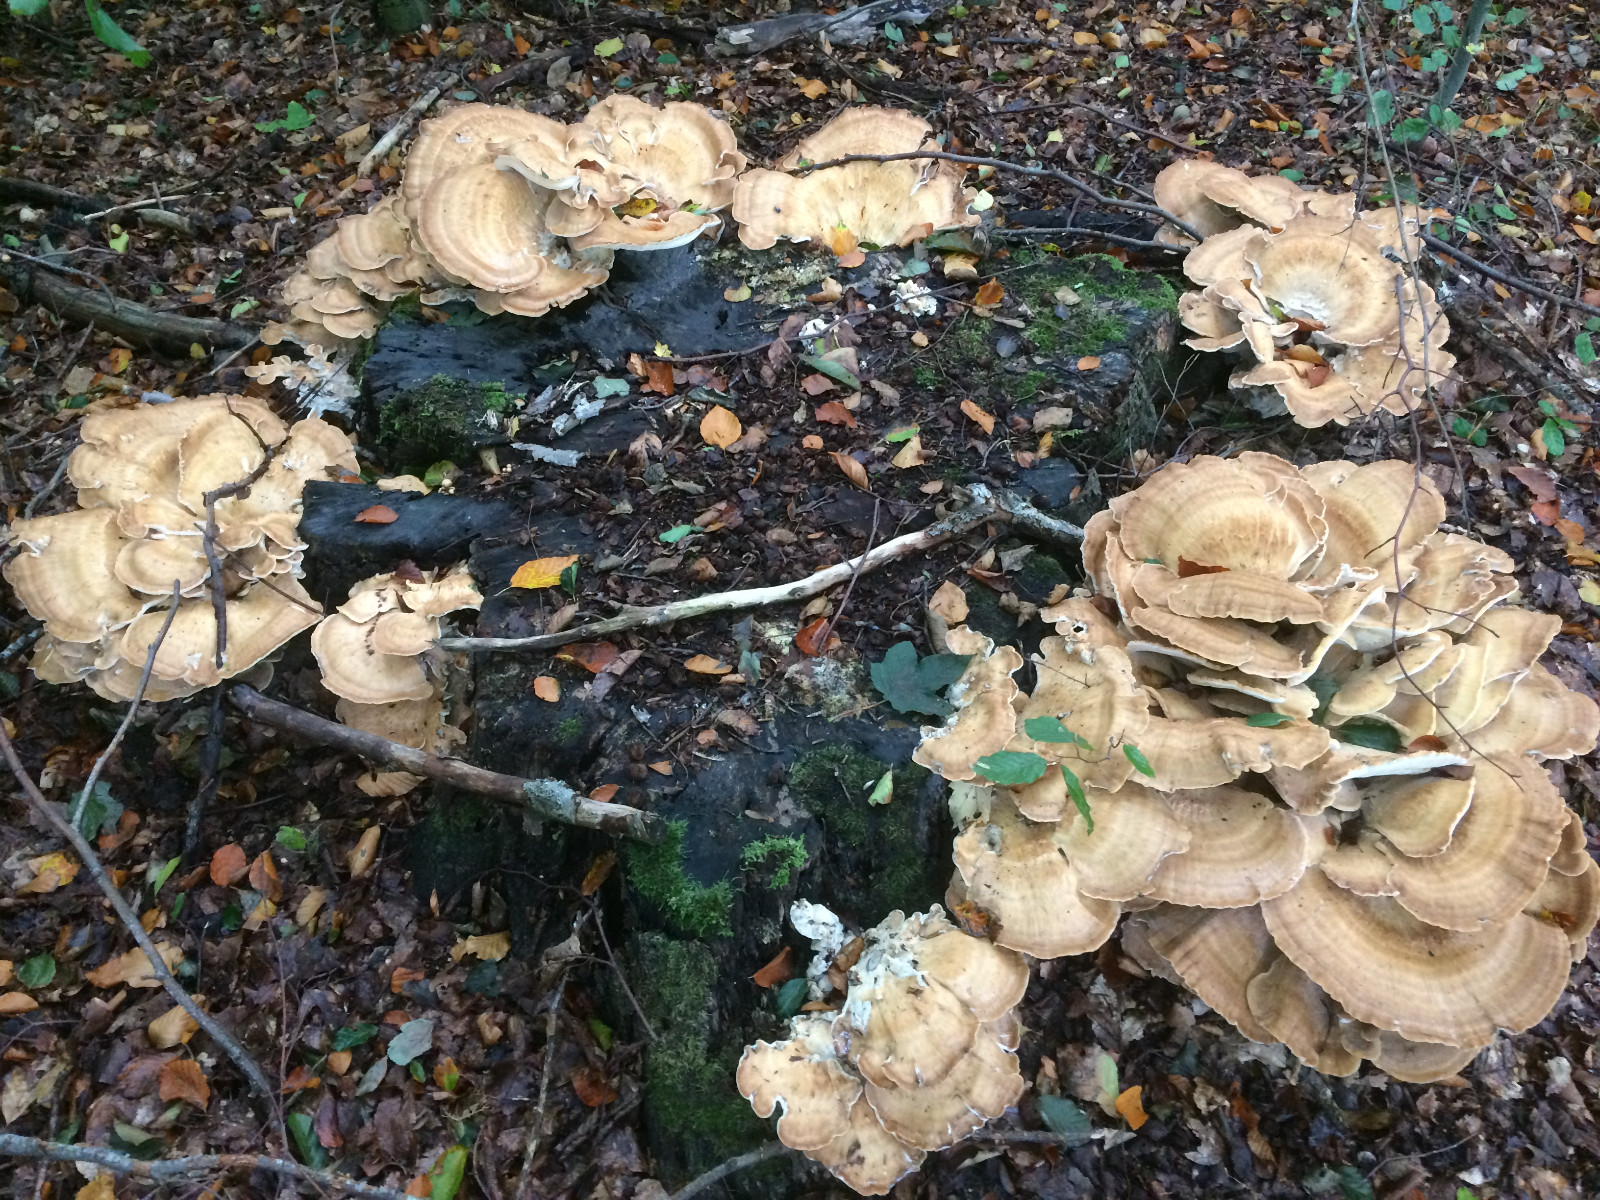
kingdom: Fungi
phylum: Basidiomycota
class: Agaricomycetes
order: Polyporales
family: Meripilaceae
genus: Meripilus
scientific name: Meripilus giganteus
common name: kæmpeporesvamp
